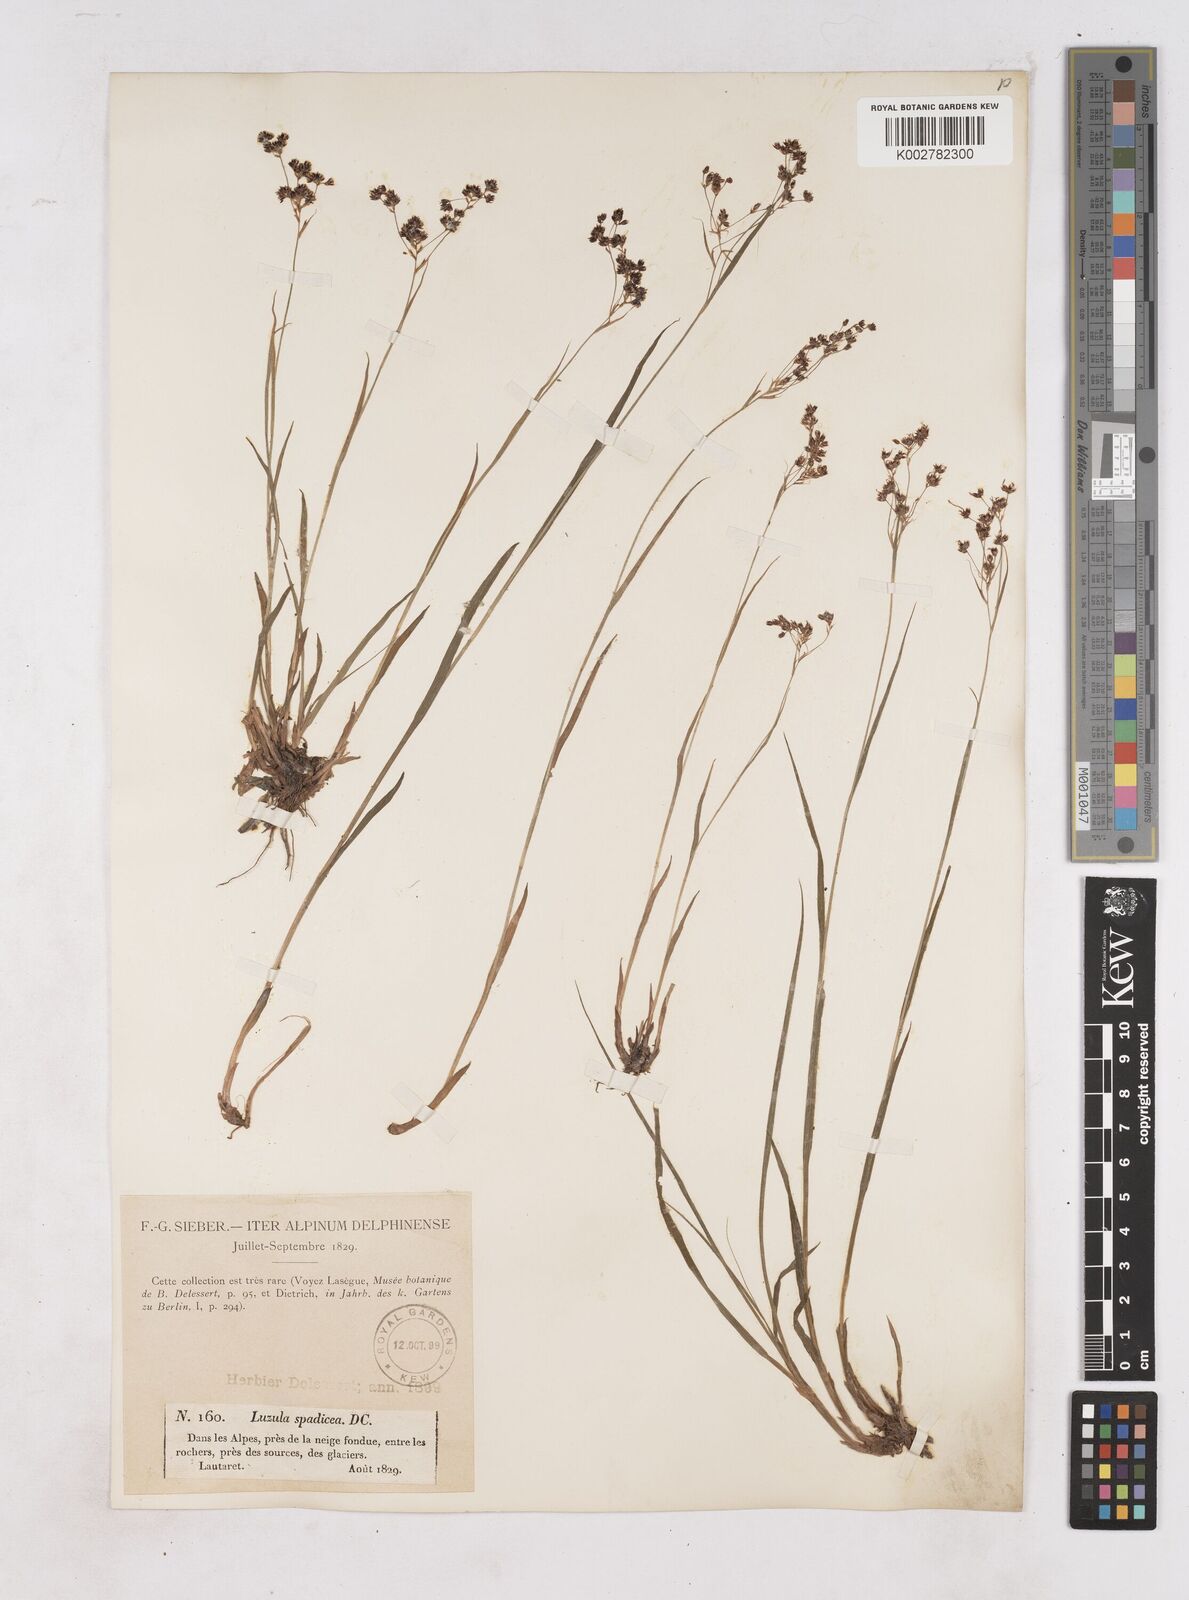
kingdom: Plantae
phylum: Tracheophyta
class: Liliopsida
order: Poales
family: Juncaceae
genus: Luzula
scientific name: Luzula alpinopilosa
